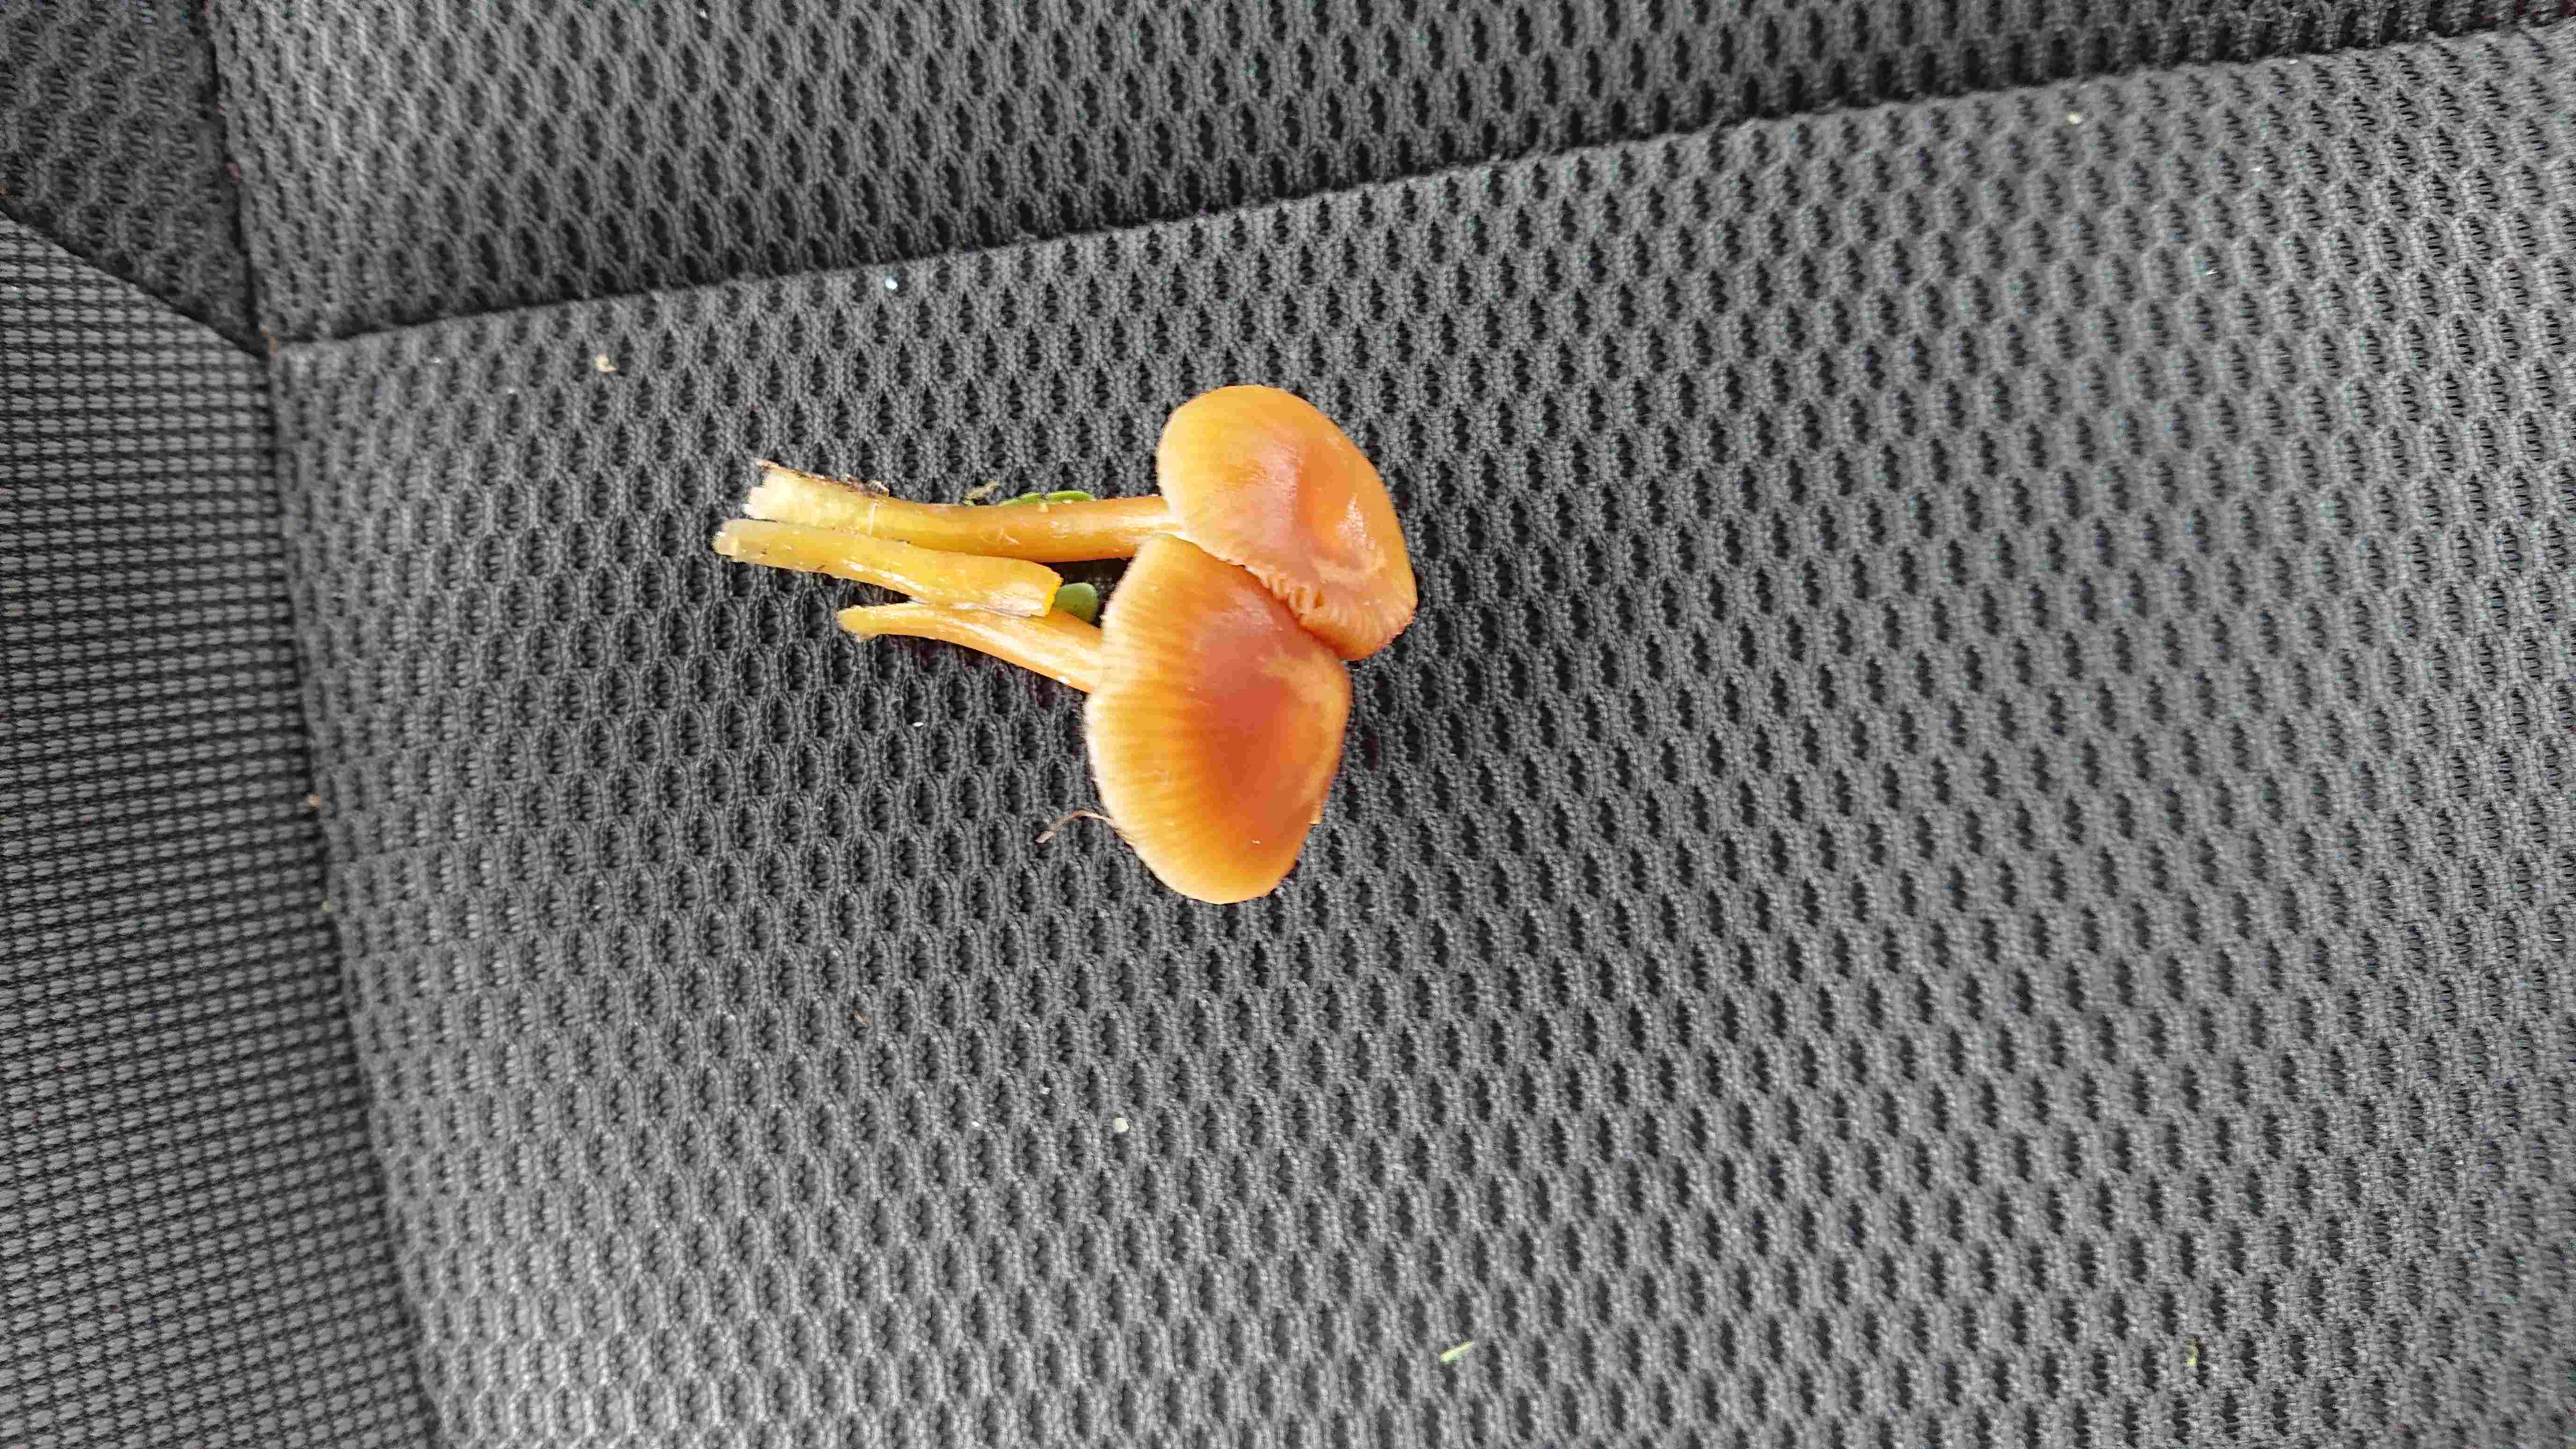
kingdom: Fungi
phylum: Basidiomycota
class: Agaricomycetes
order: Agaricales
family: Hygrophoraceae
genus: Gliophorus
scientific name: Gliophorus laetus
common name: brusk-vokshat
